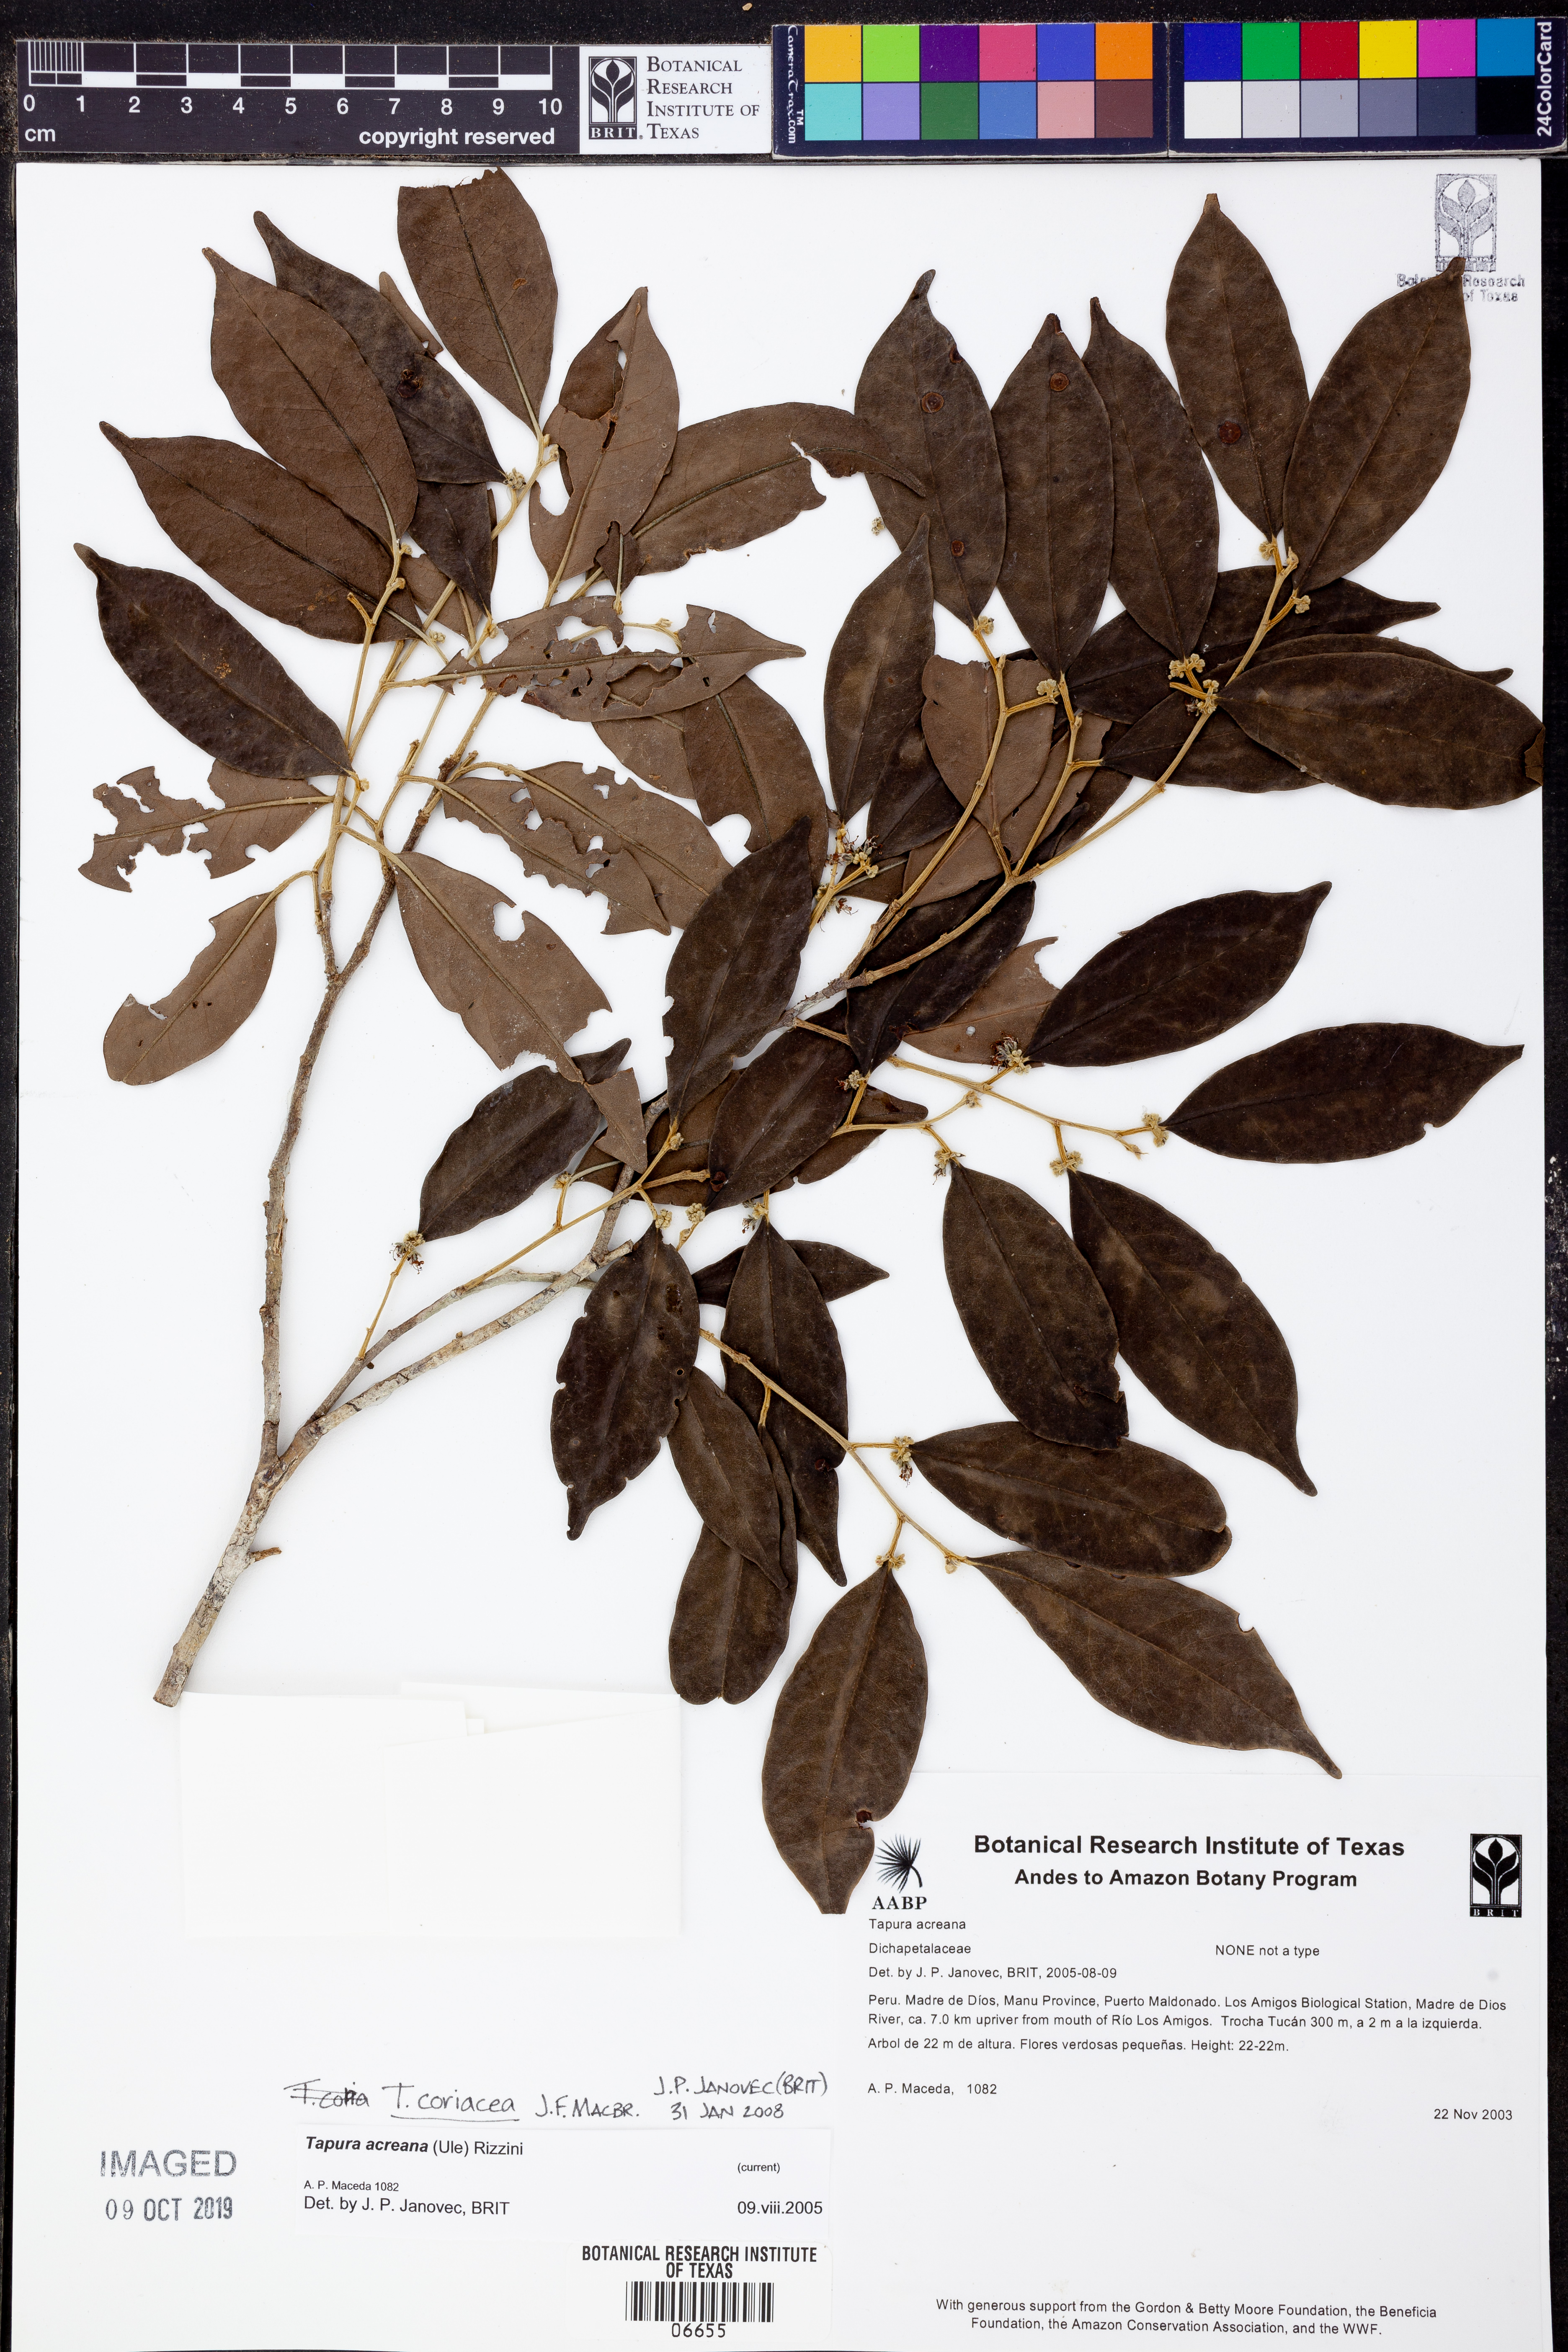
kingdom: Plantae
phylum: Tracheophyta
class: Magnoliopsida
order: Malpighiales
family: Dichapetalaceae
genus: Tapura
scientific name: Tapura
